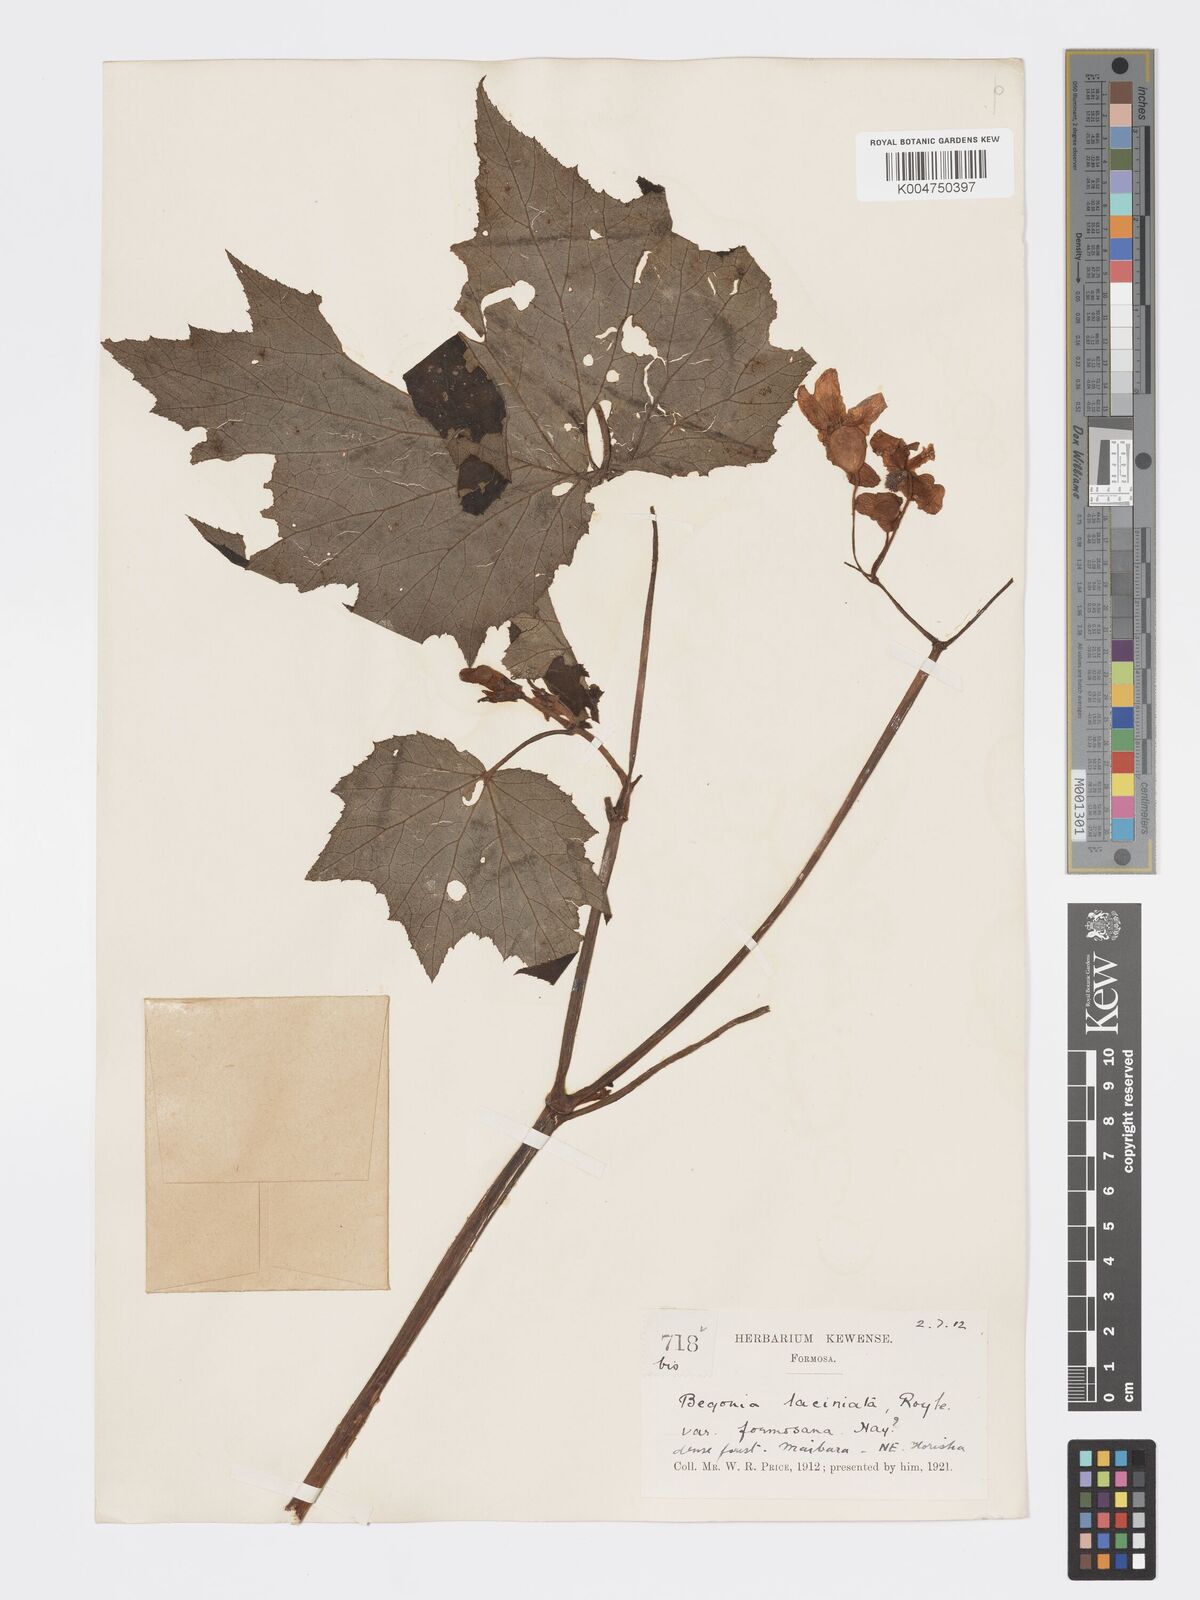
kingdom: Plantae
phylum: Tracheophyta
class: Magnoliopsida
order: Cucurbitales
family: Begoniaceae
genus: Begonia
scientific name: Begonia palmata
